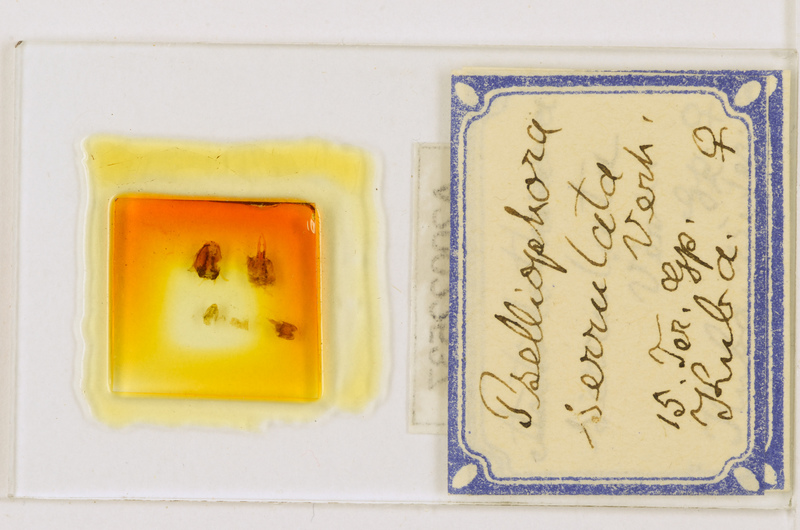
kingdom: Animalia
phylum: Arthropoda
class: Chilopoda
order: Scutigeromorpha
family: Pselliodidae
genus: Sphendononema
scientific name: Sphendononema guildingii
